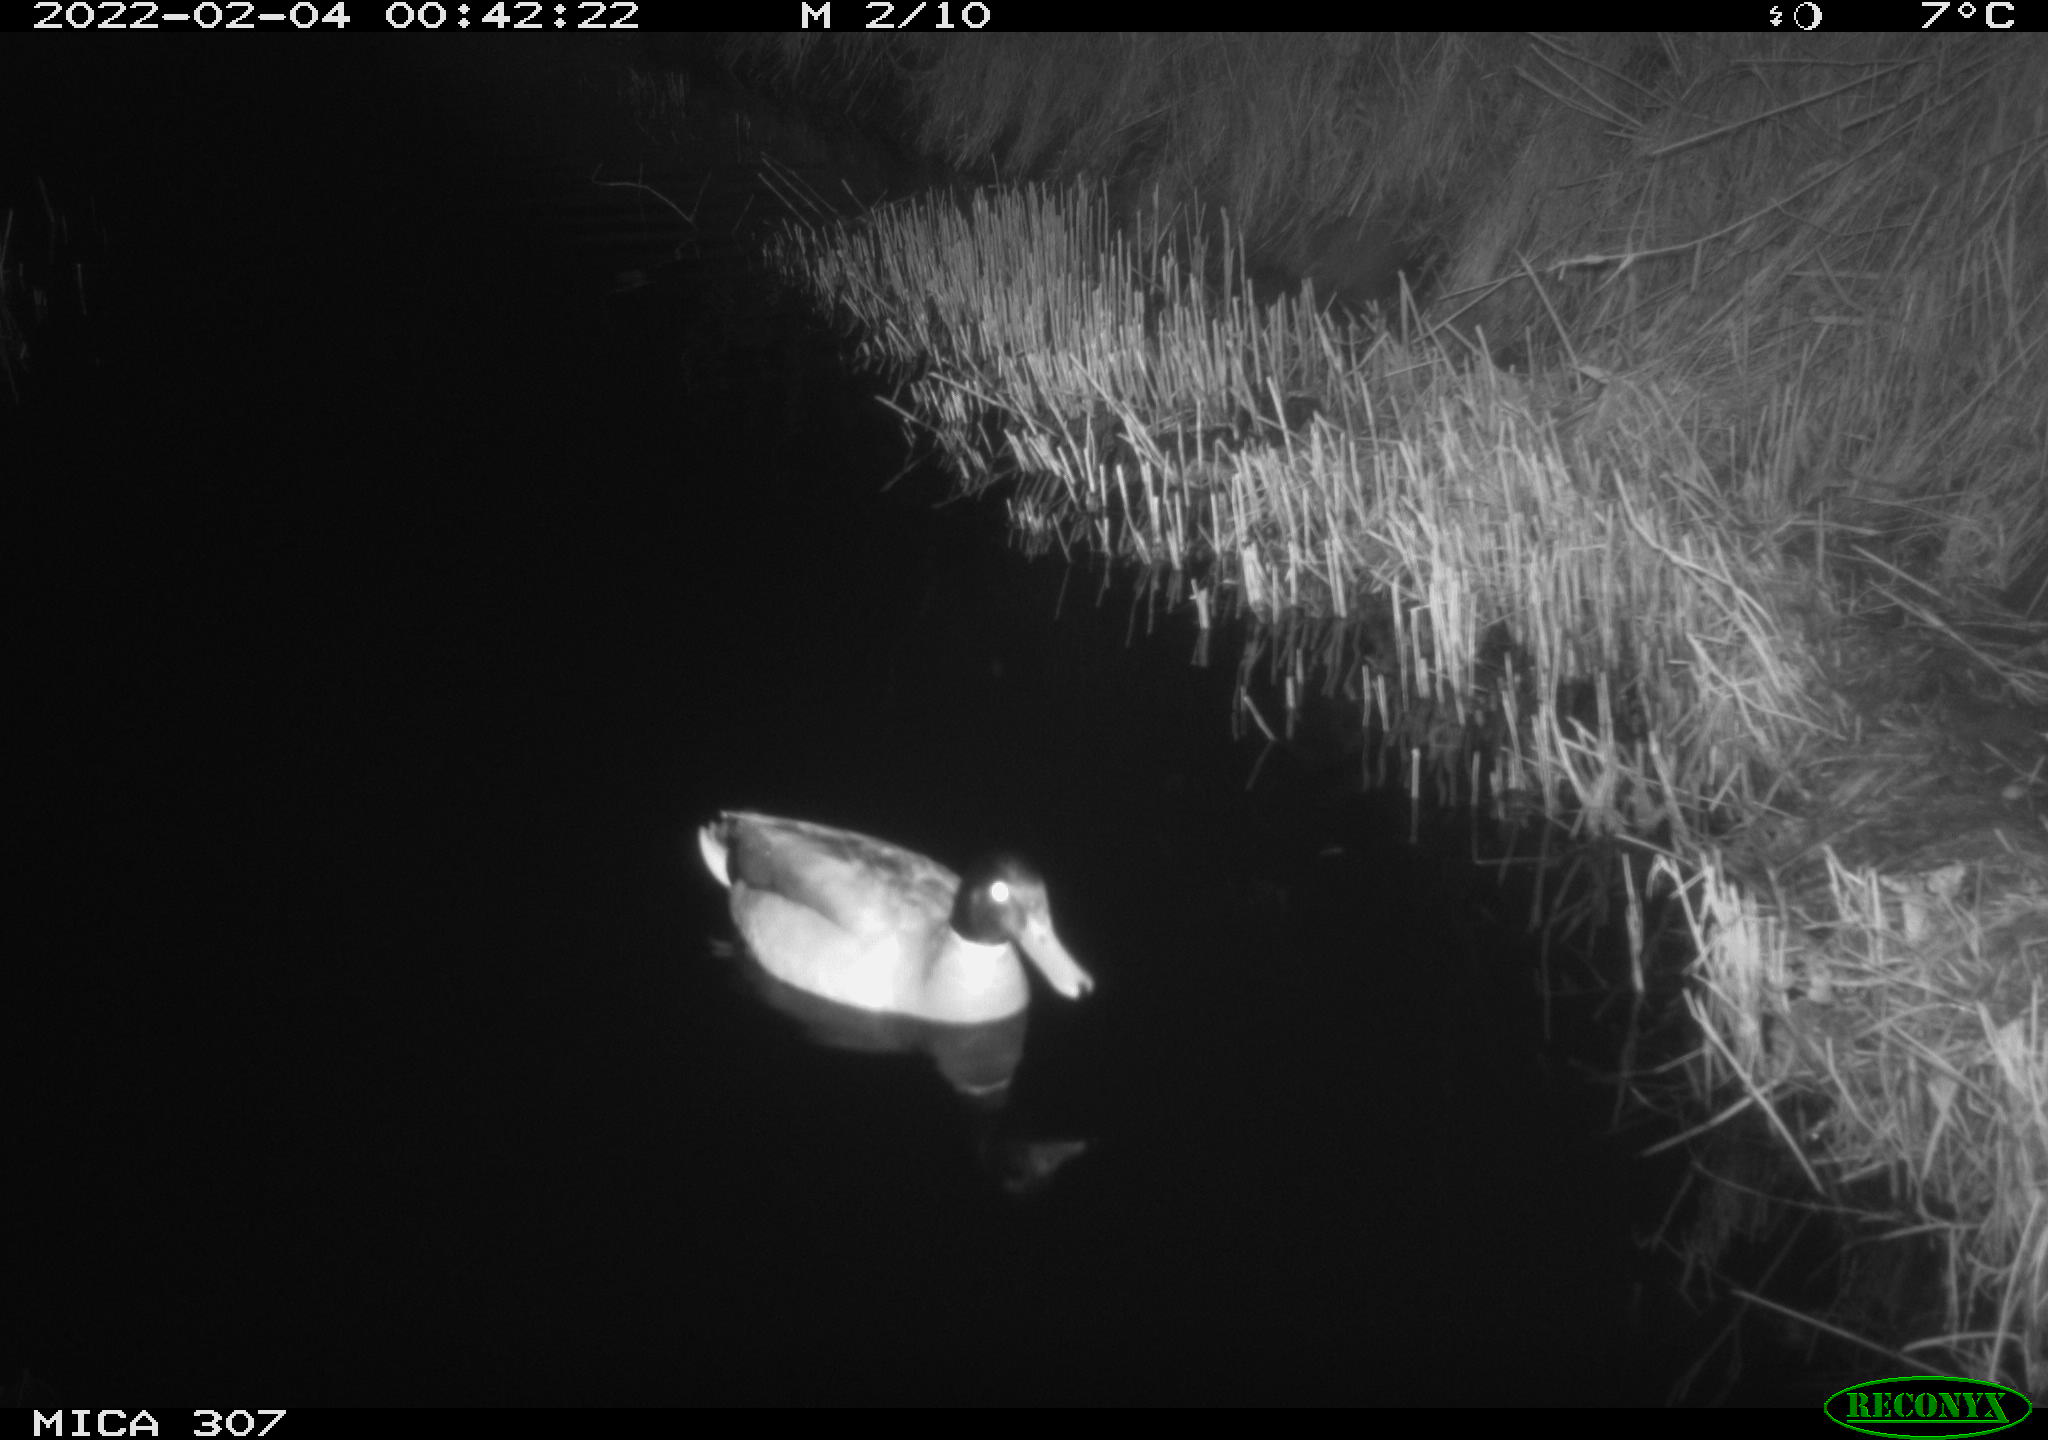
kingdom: Animalia
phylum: Chordata
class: Aves
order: Anseriformes
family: Anatidae
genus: Anas
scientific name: Anas platyrhynchos
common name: Mallard
